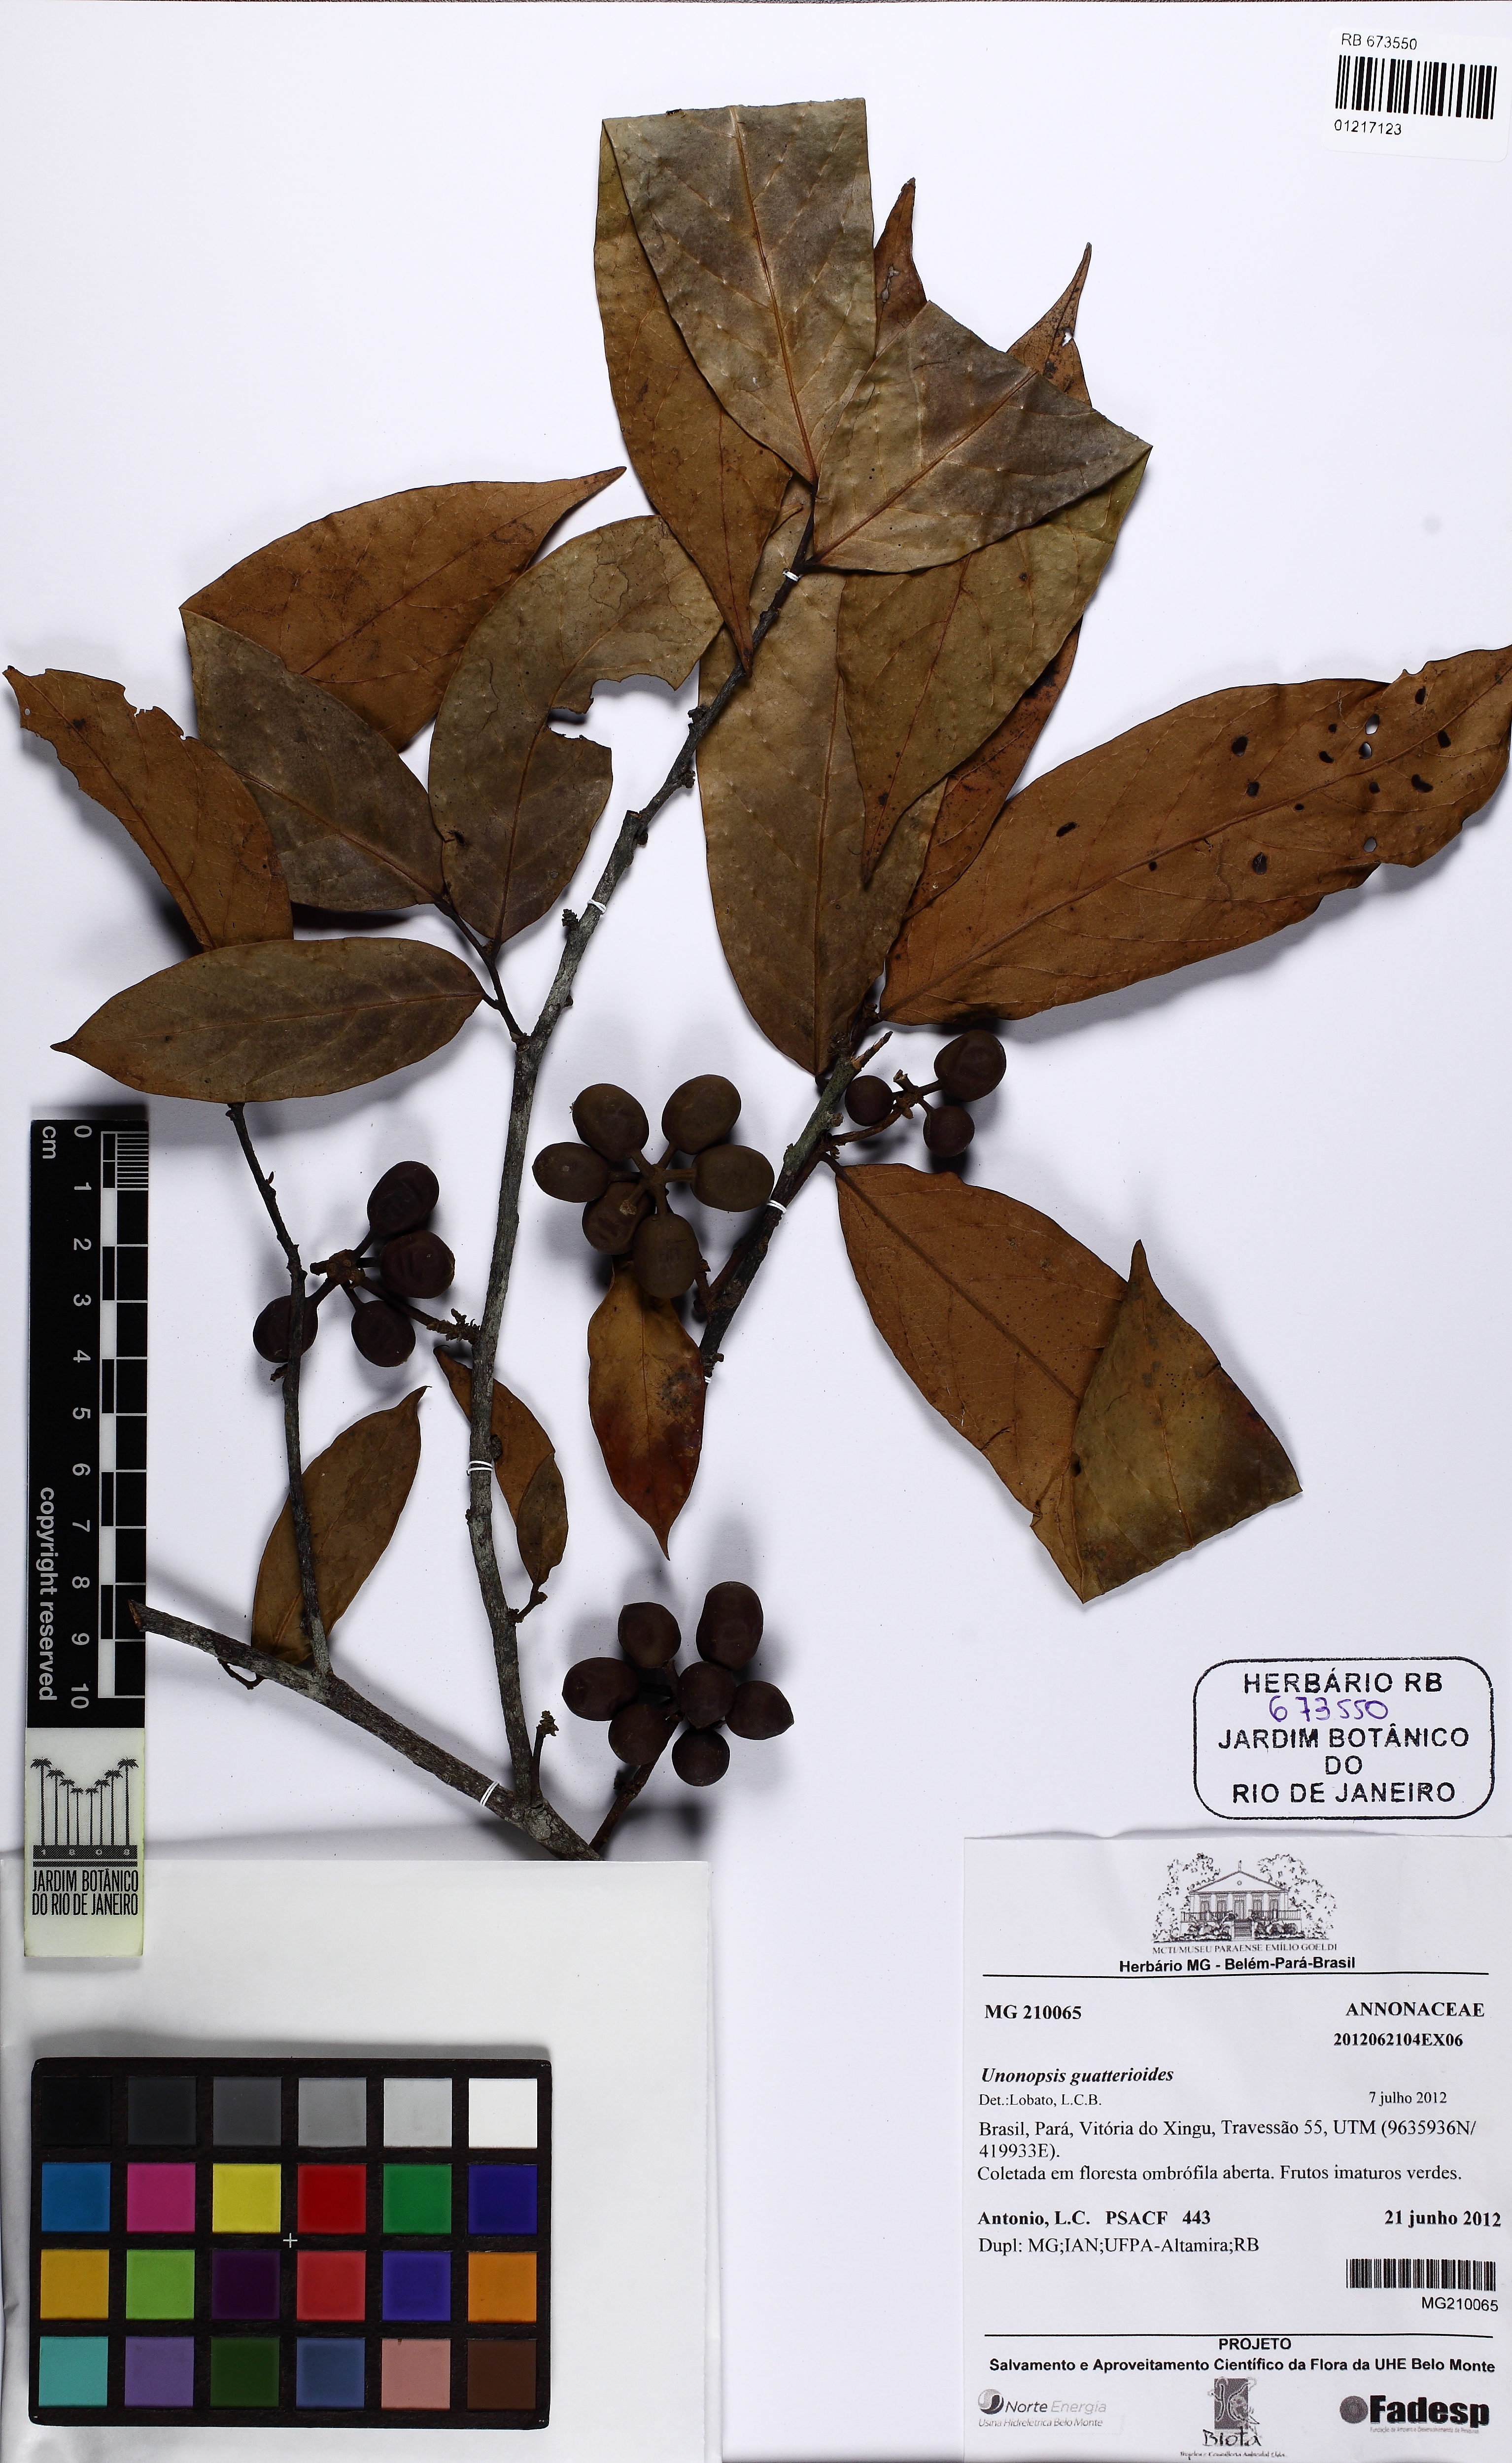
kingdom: Plantae
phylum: Tracheophyta
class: Magnoliopsida
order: Magnoliales
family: Annonaceae
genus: Unonopsis
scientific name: Unonopsis guatterioides
